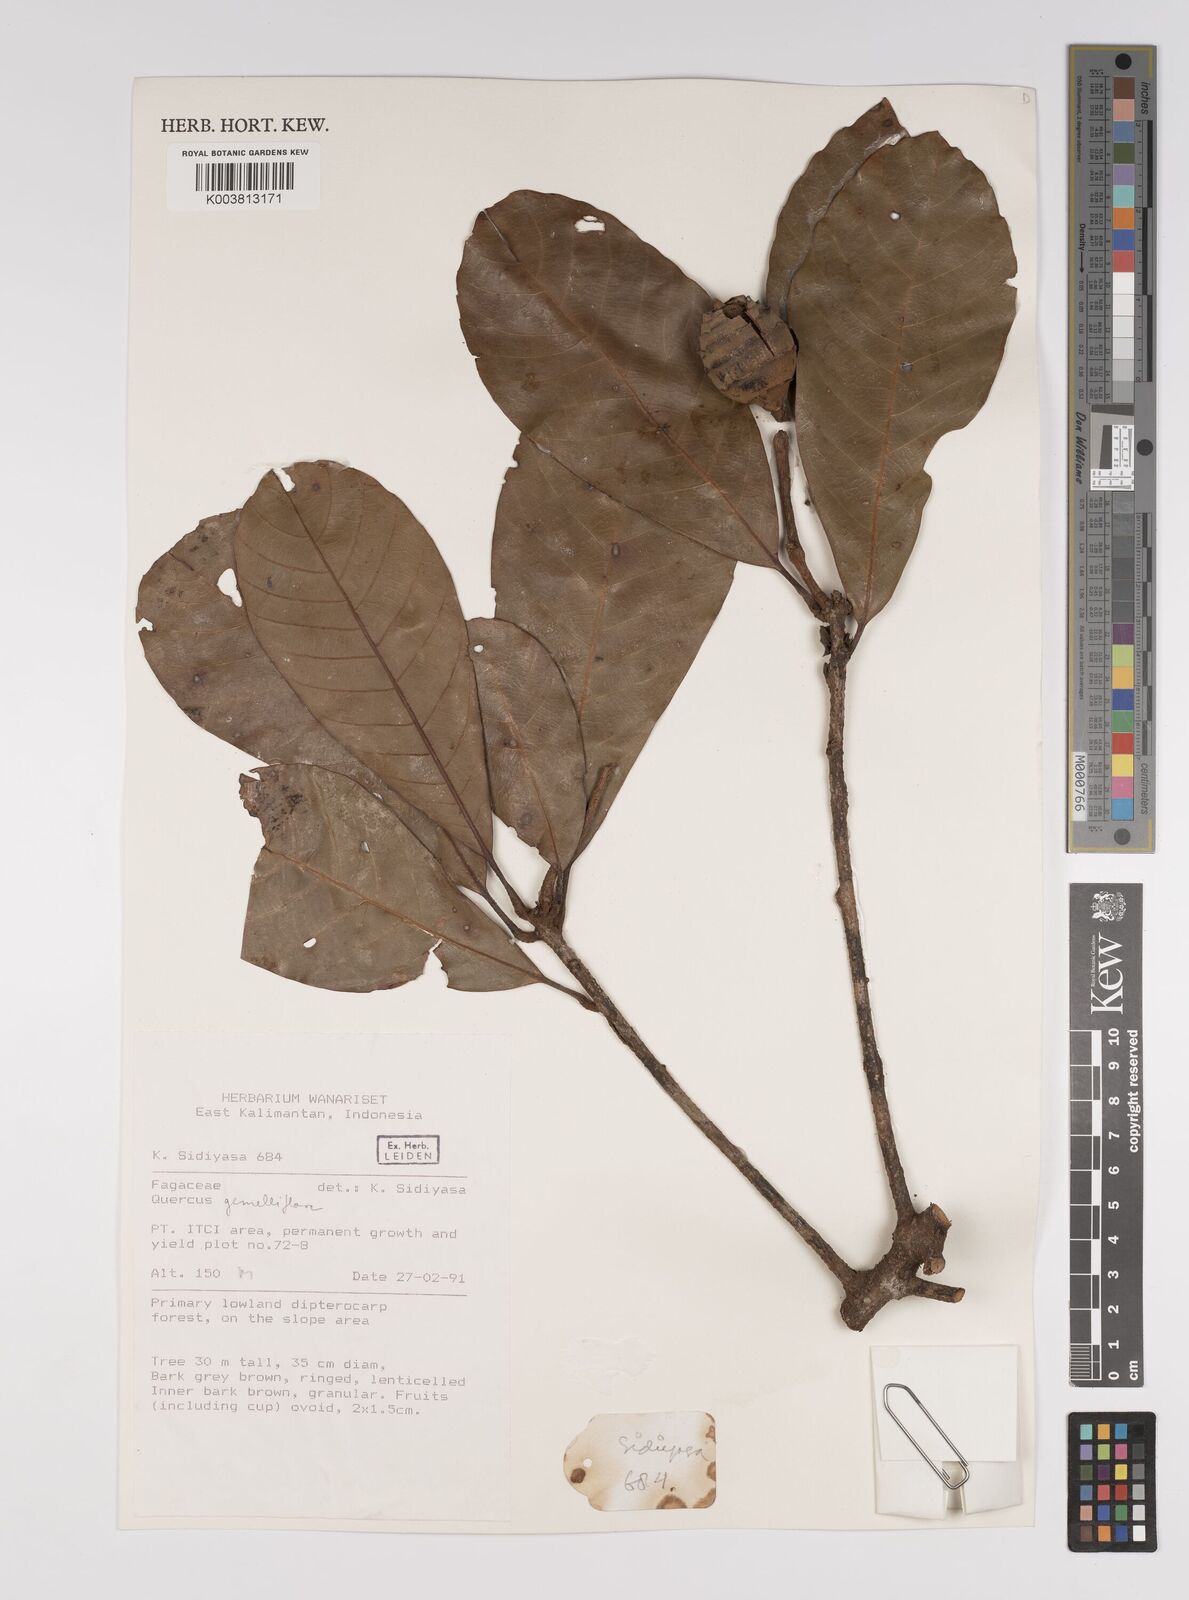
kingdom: Plantae
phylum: Tracheophyta
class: Magnoliopsida
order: Fagales
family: Fagaceae
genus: Quercus
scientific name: Quercus pseudoverticillata
